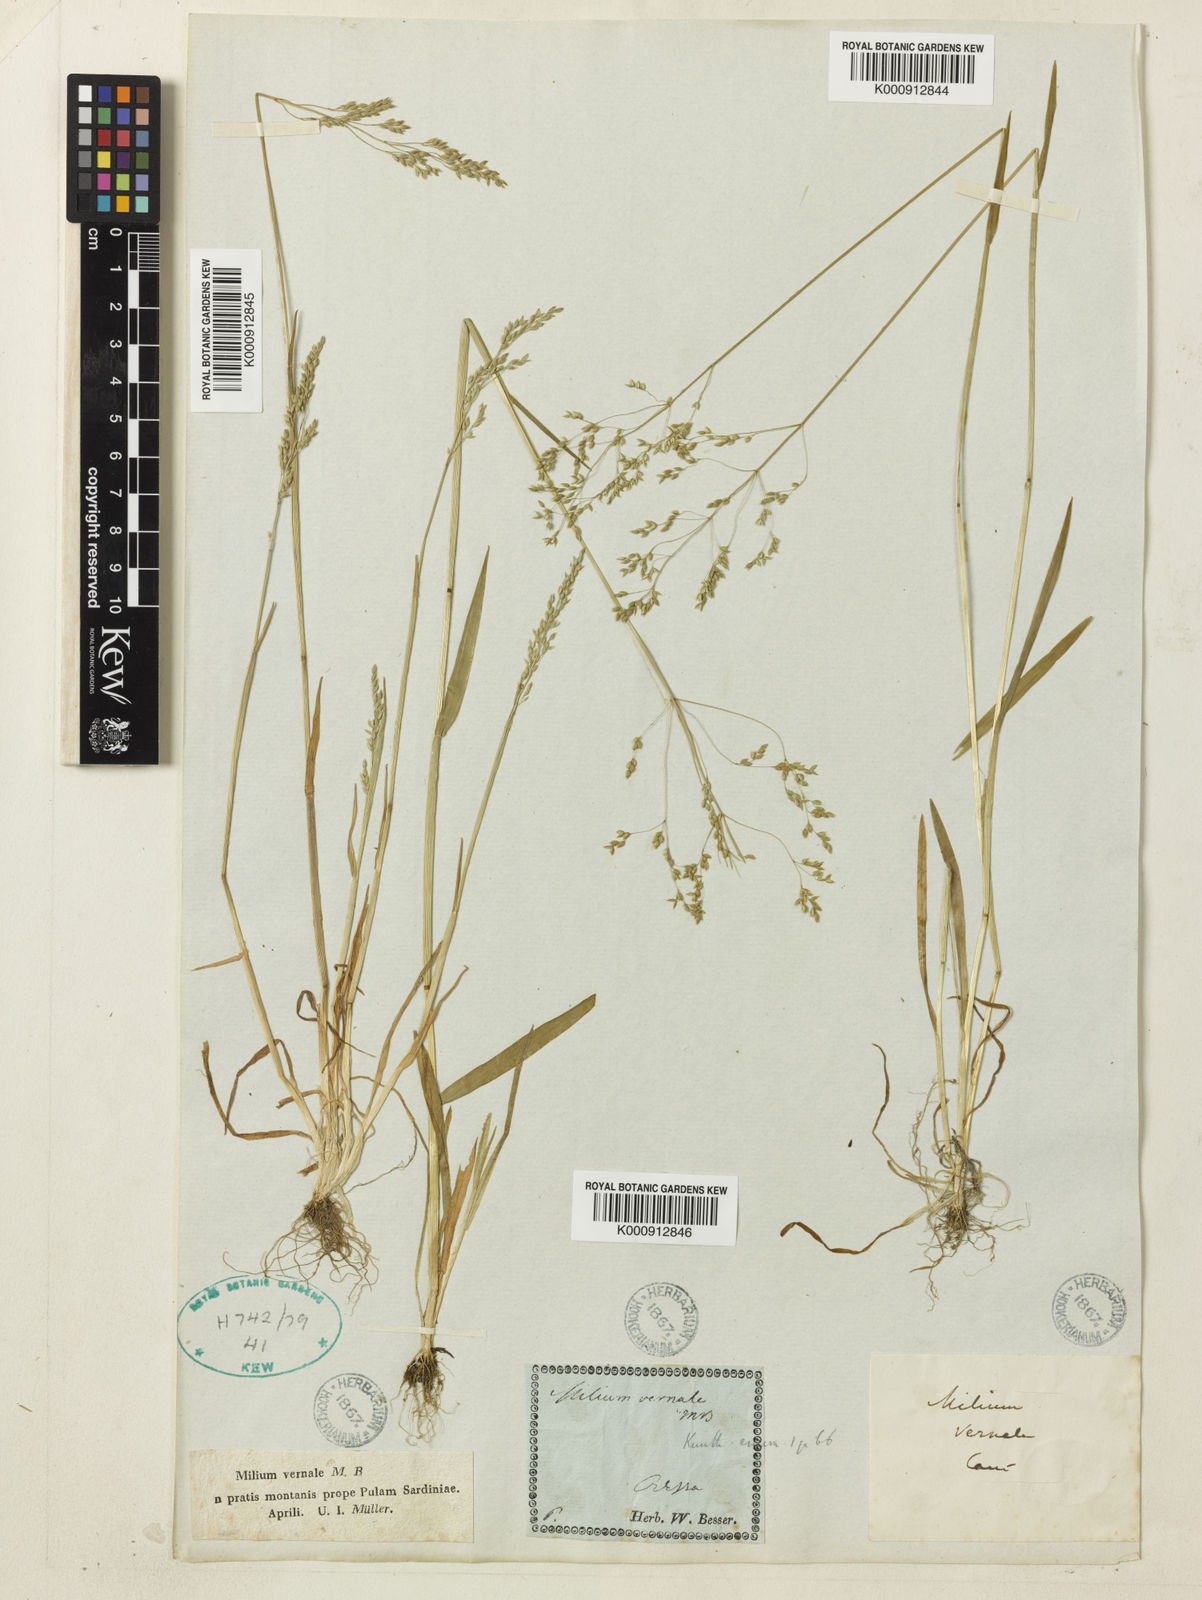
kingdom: Plantae
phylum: Tracheophyta
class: Liliopsida
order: Poales
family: Poaceae
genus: Milium
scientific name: Milium vernale
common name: Early millet
